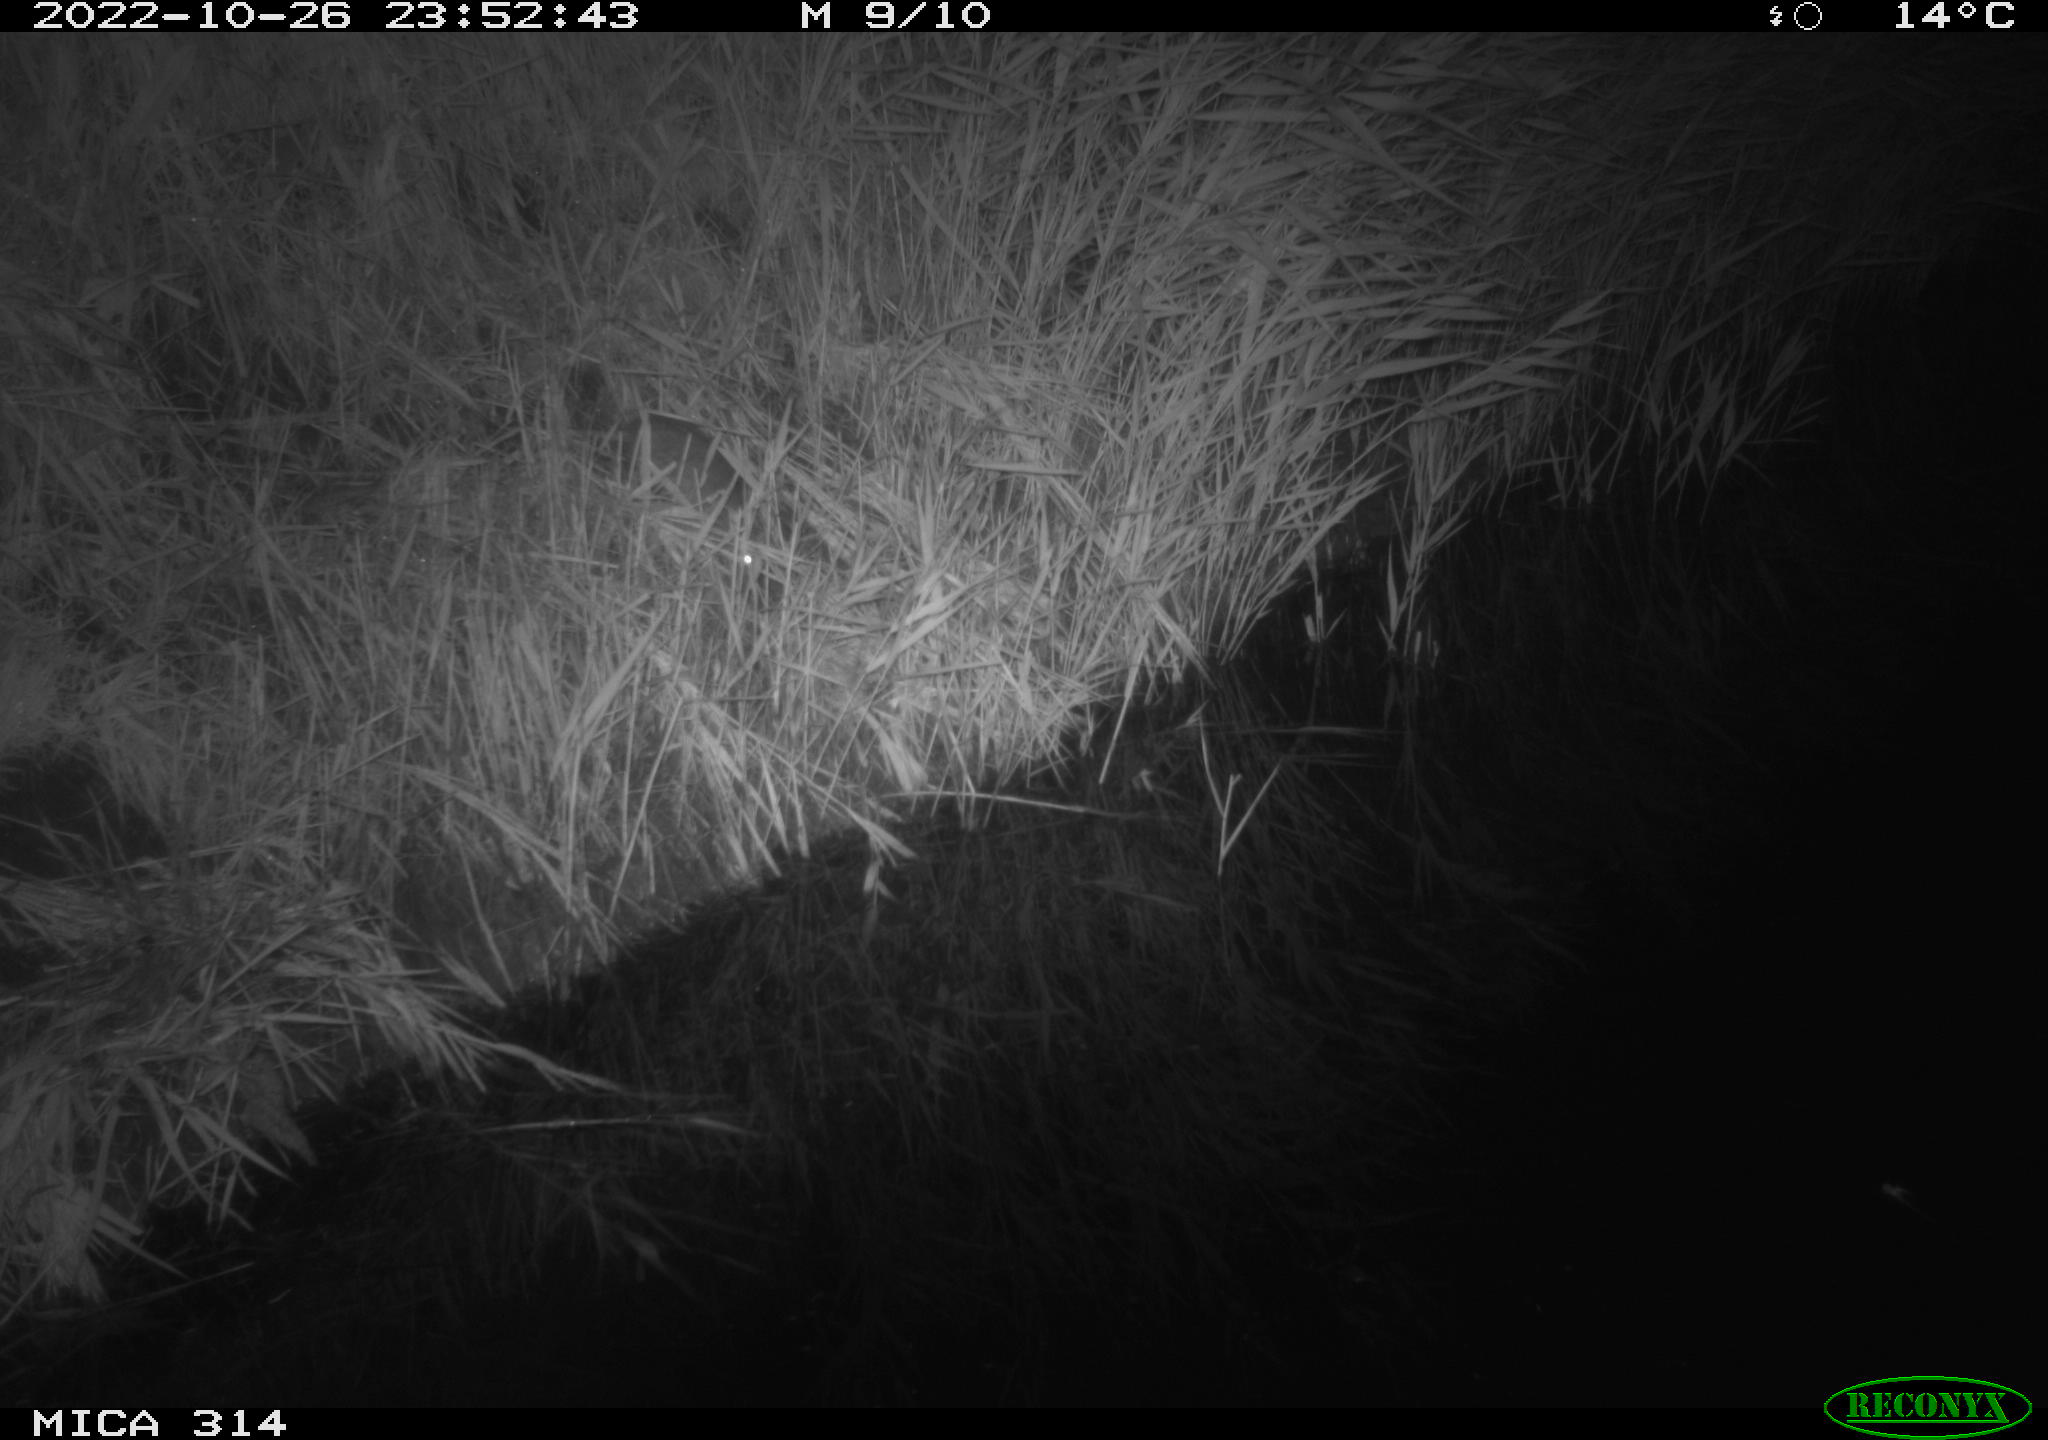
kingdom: Animalia
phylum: Chordata
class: Mammalia
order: Rodentia
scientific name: Rodentia
